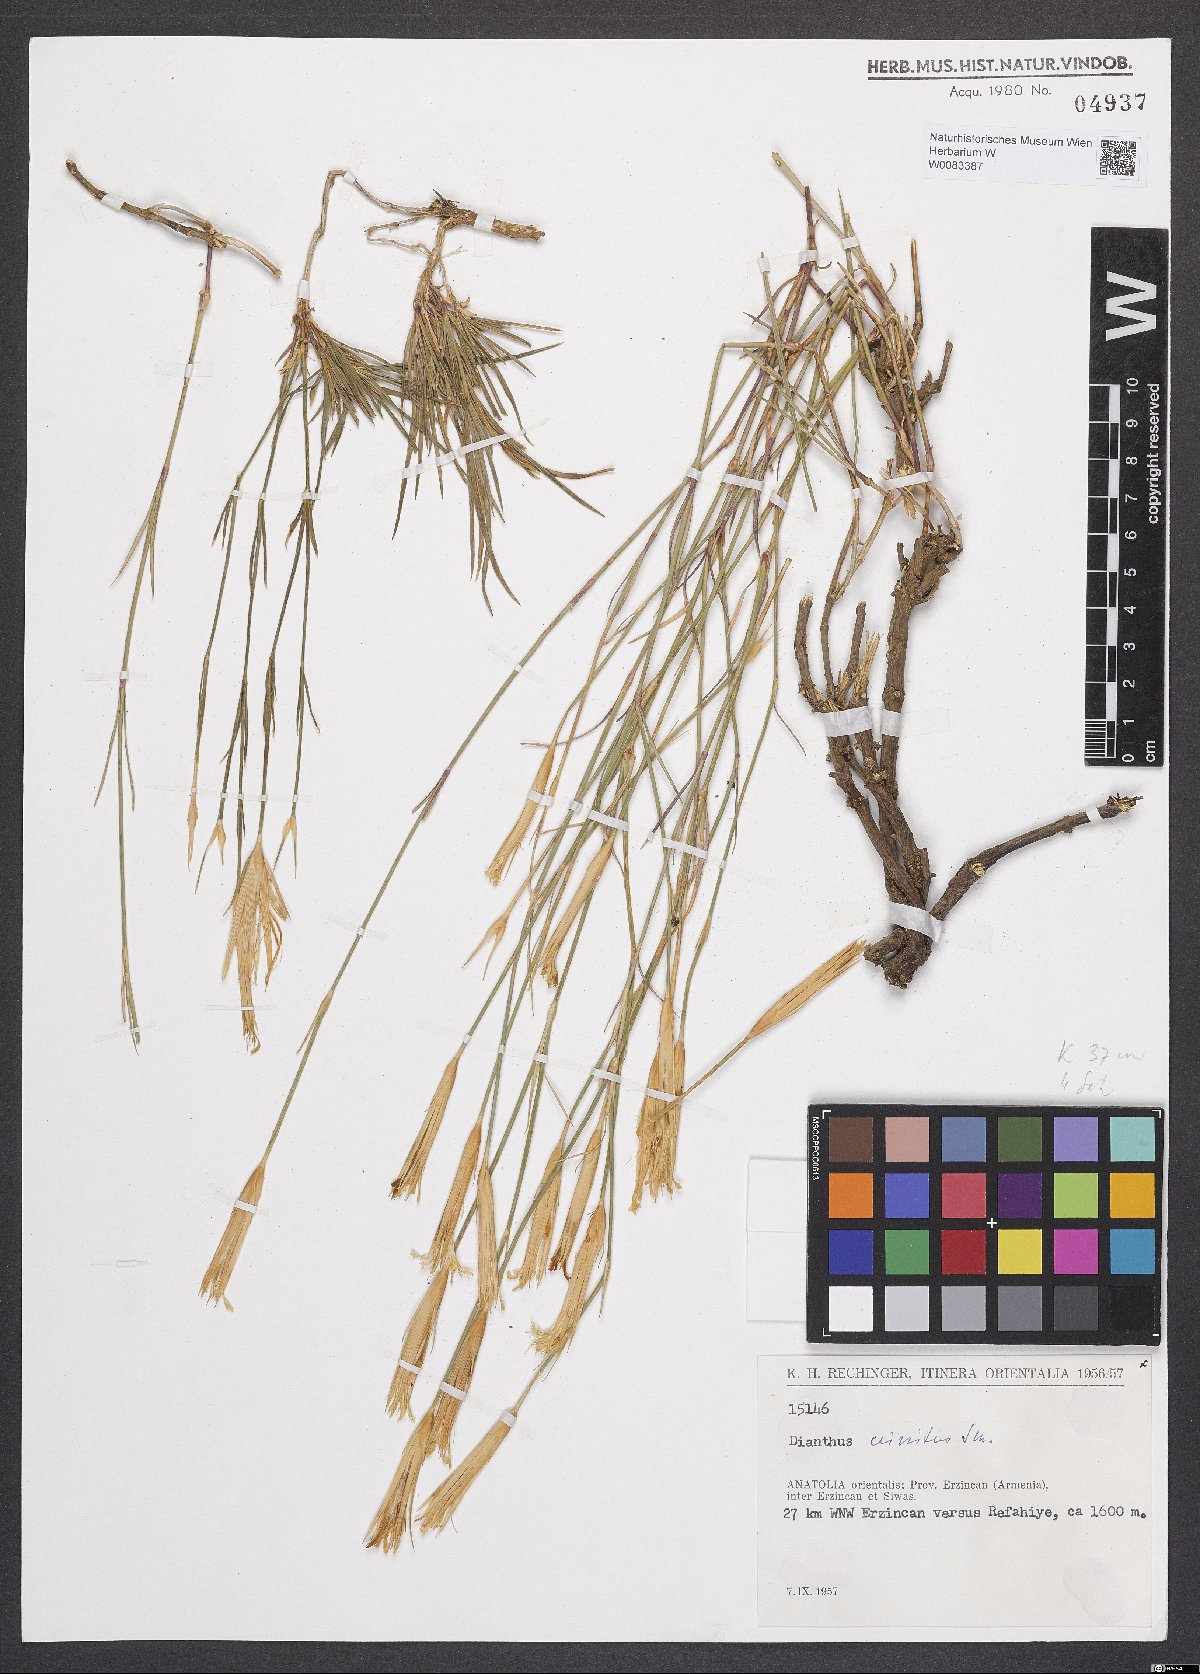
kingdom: Plantae
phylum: Tracheophyta
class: Magnoliopsida
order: Caryophyllales
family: Caryophyllaceae
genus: Dianthus
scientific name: Dianthus crinitus
